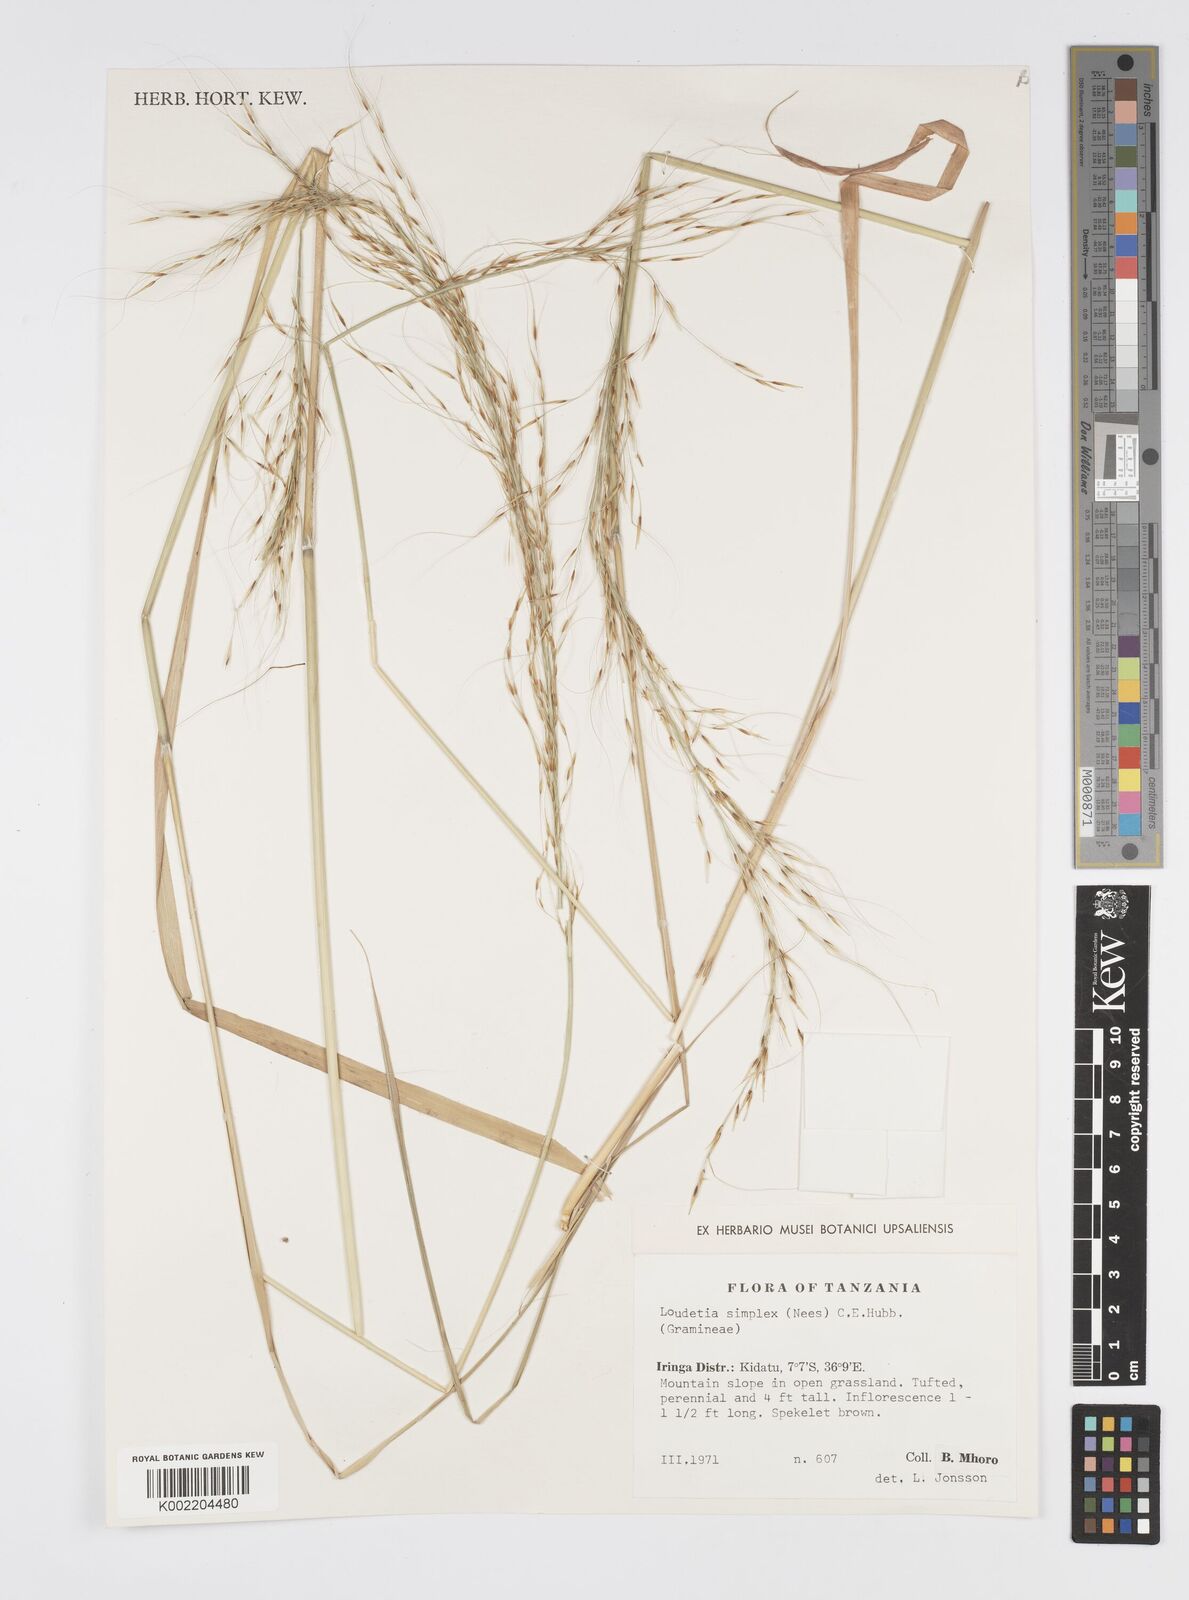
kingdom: Plantae
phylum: Tracheophyta
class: Liliopsida
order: Poales
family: Poaceae
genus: Loudetia
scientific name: Loudetia simplex
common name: Common russet grass
